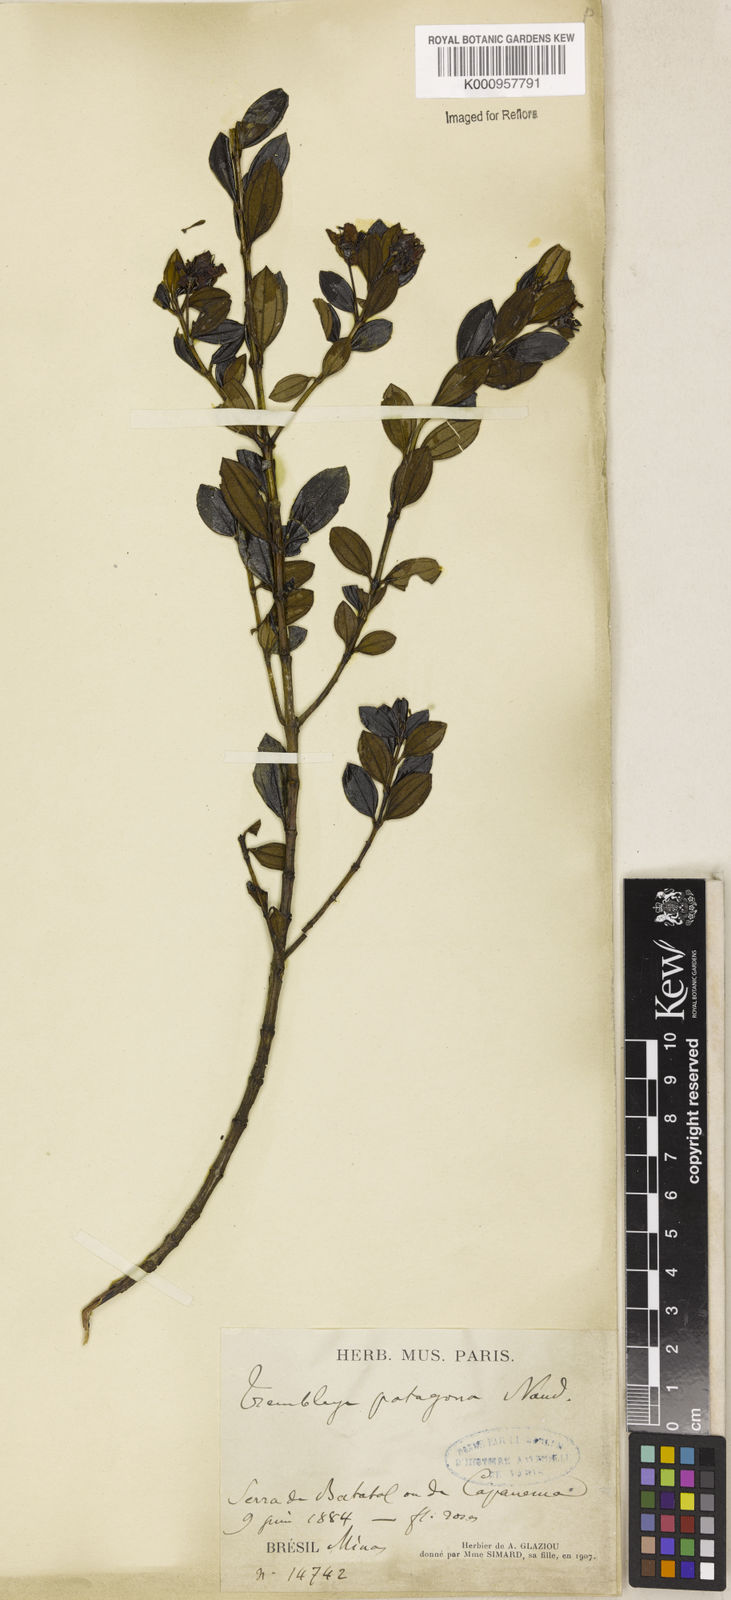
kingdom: Plantae
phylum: Tracheophyta
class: Magnoliopsida
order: Myrtales
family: Melastomataceae
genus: Microlicia
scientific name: Microlicia pentagona
